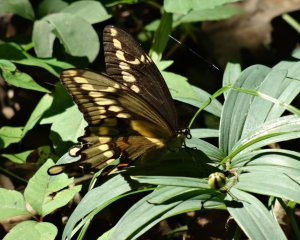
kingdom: Animalia
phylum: Arthropoda
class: Insecta
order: Lepidoptera
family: Papilionidae
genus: Papilio
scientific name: Papilio cresphontes
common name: Eastern Giant Swallowtail
